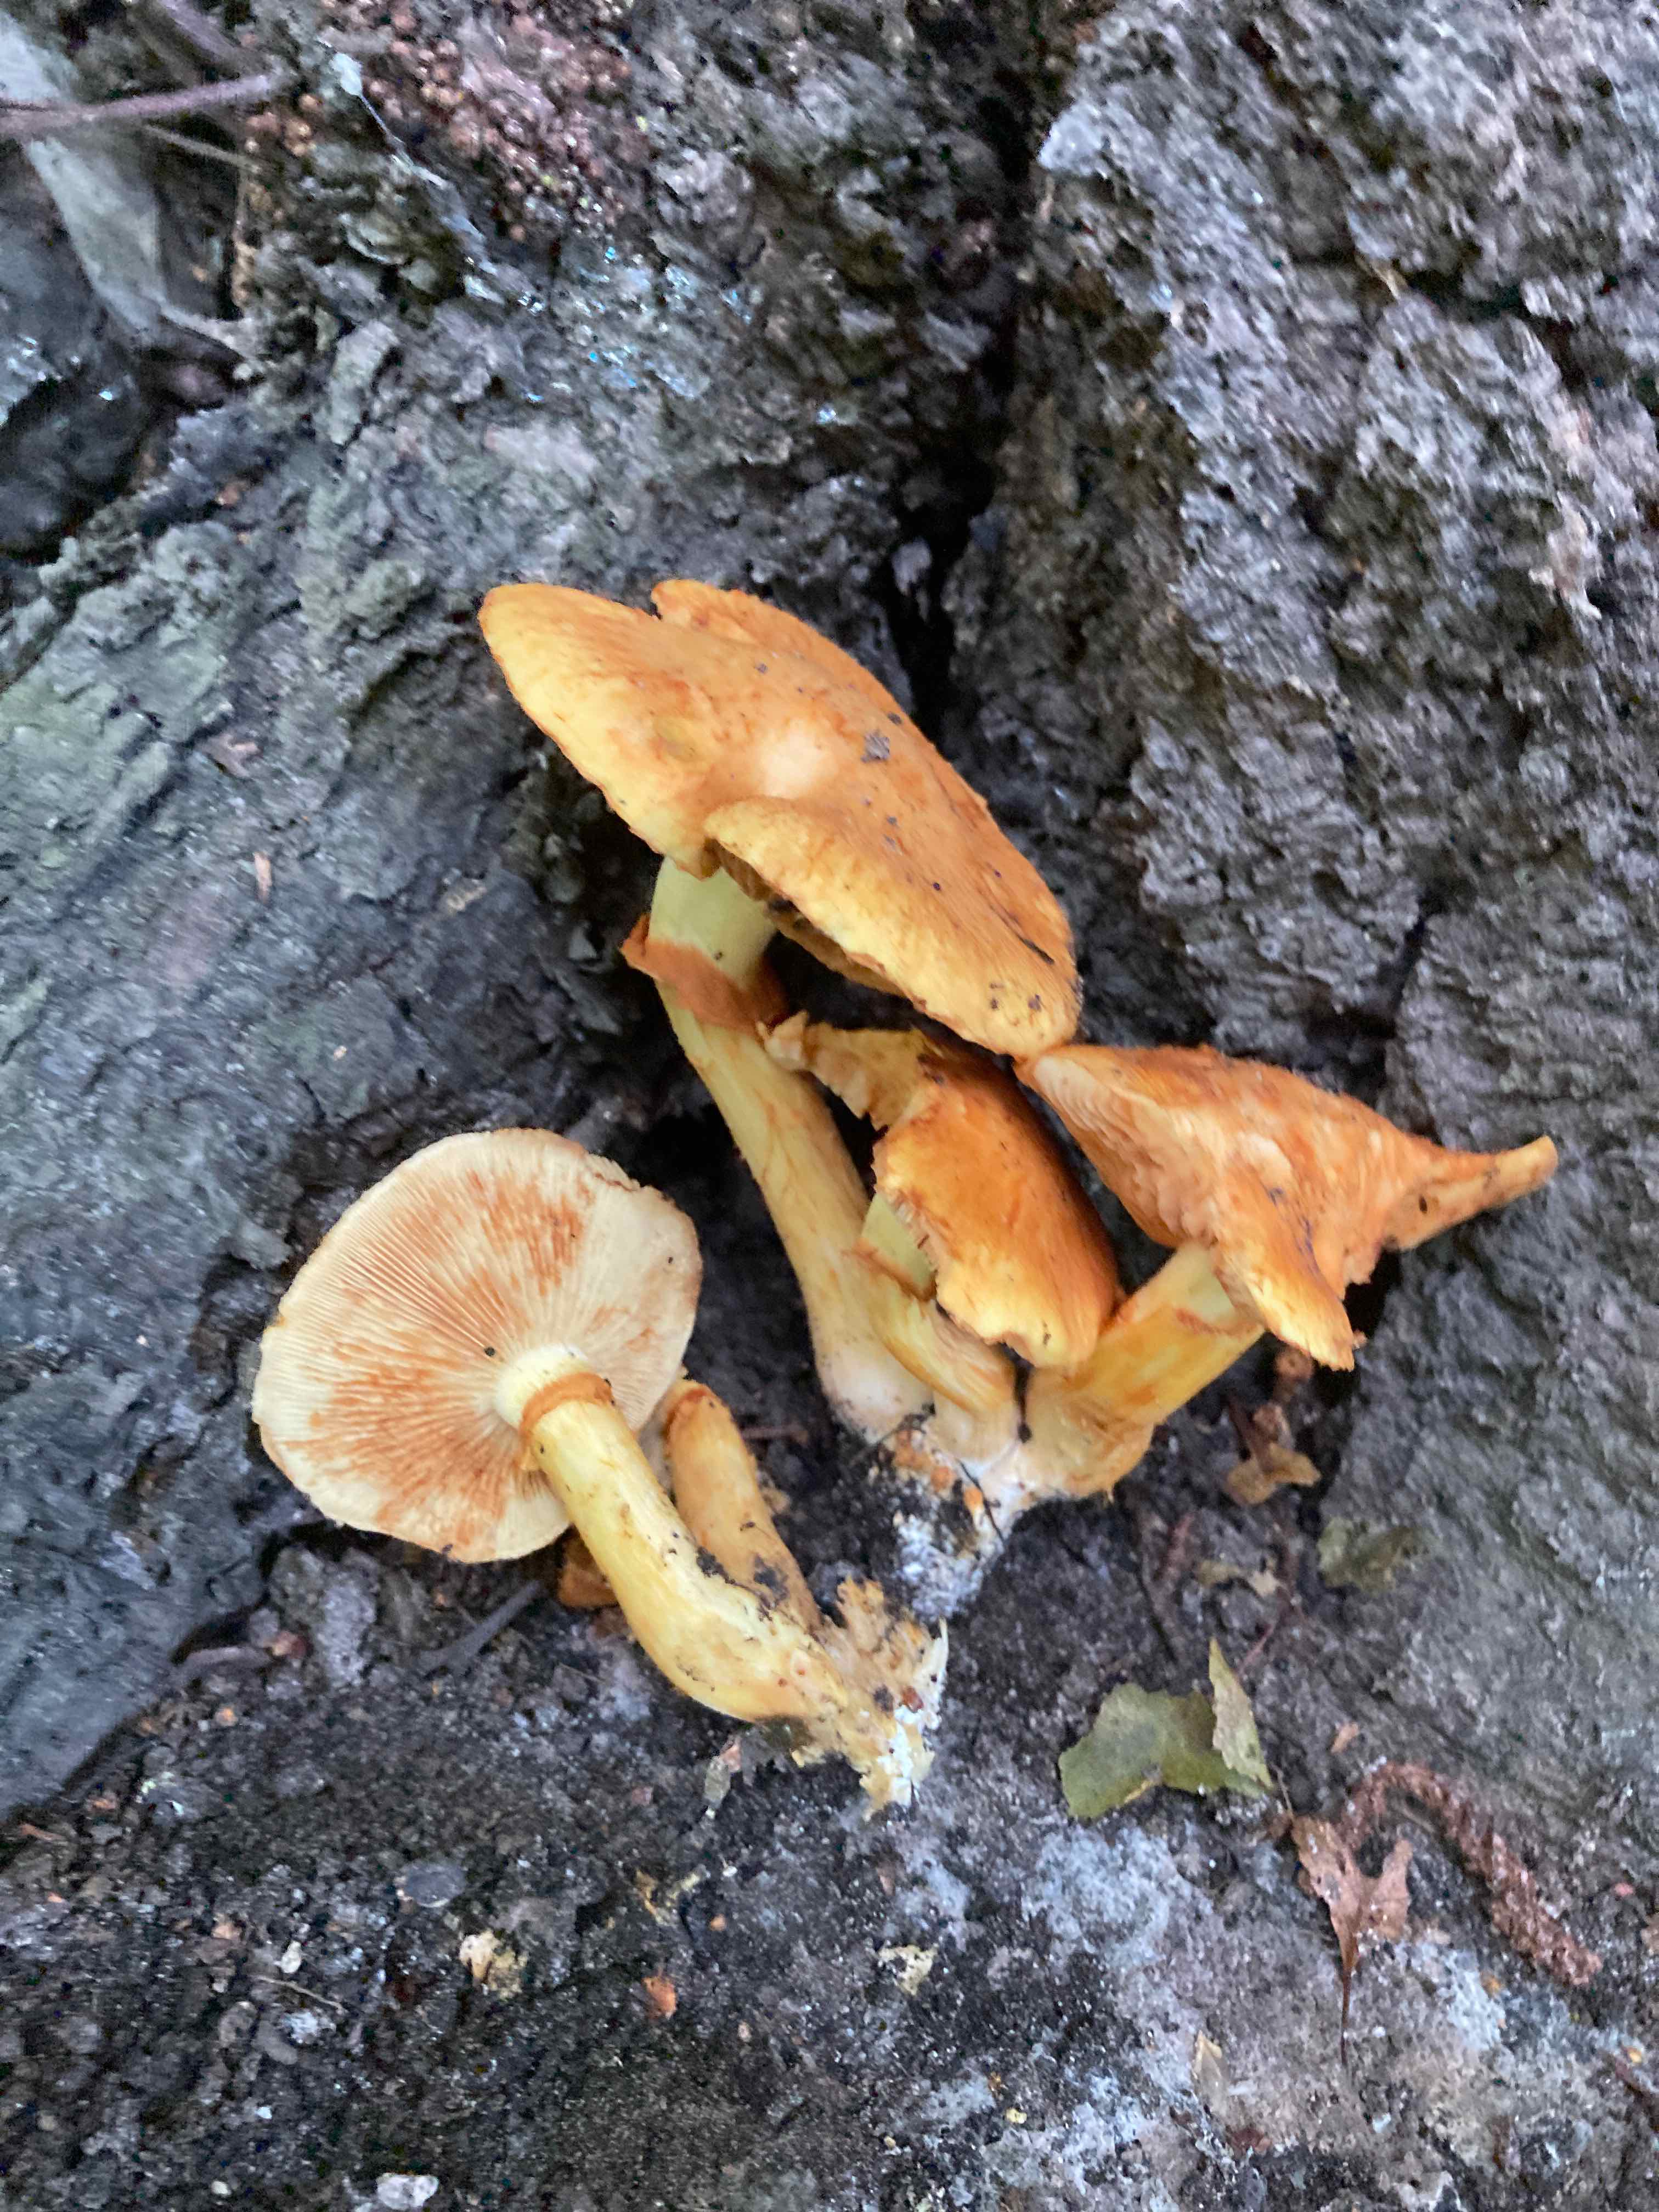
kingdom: Fungi
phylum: Basidiomycota
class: Agaricomycetes
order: Agaricales
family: Hymenogastraceae
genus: Gymnopilus
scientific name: Gymnopilus spectabilis
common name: fibret flammehat
